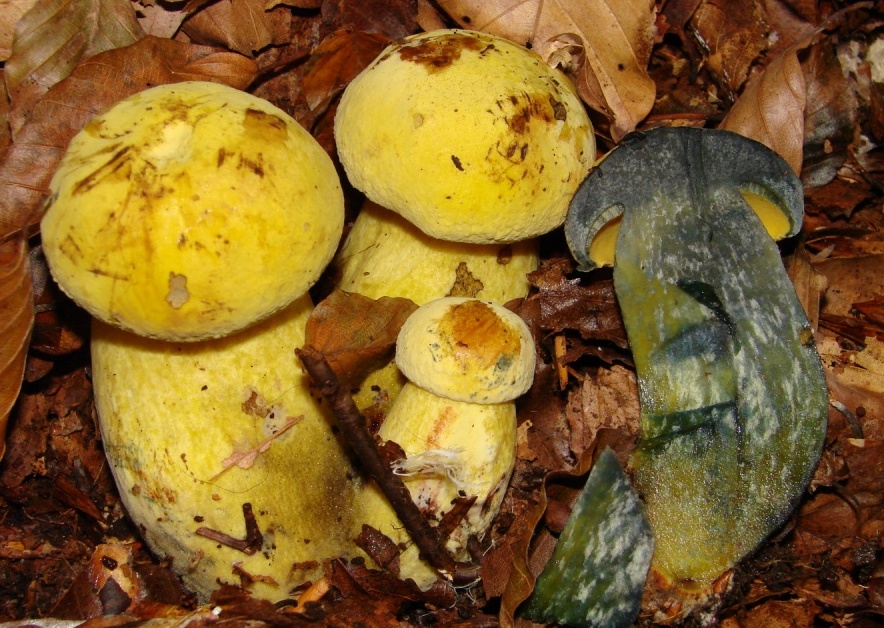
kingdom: Fungi
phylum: Basidiomycota
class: Agaricomycetes
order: Boletales
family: Boletaceae
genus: Neoboletus
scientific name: Neoboletus praestigiator
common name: gul indigorørhat
